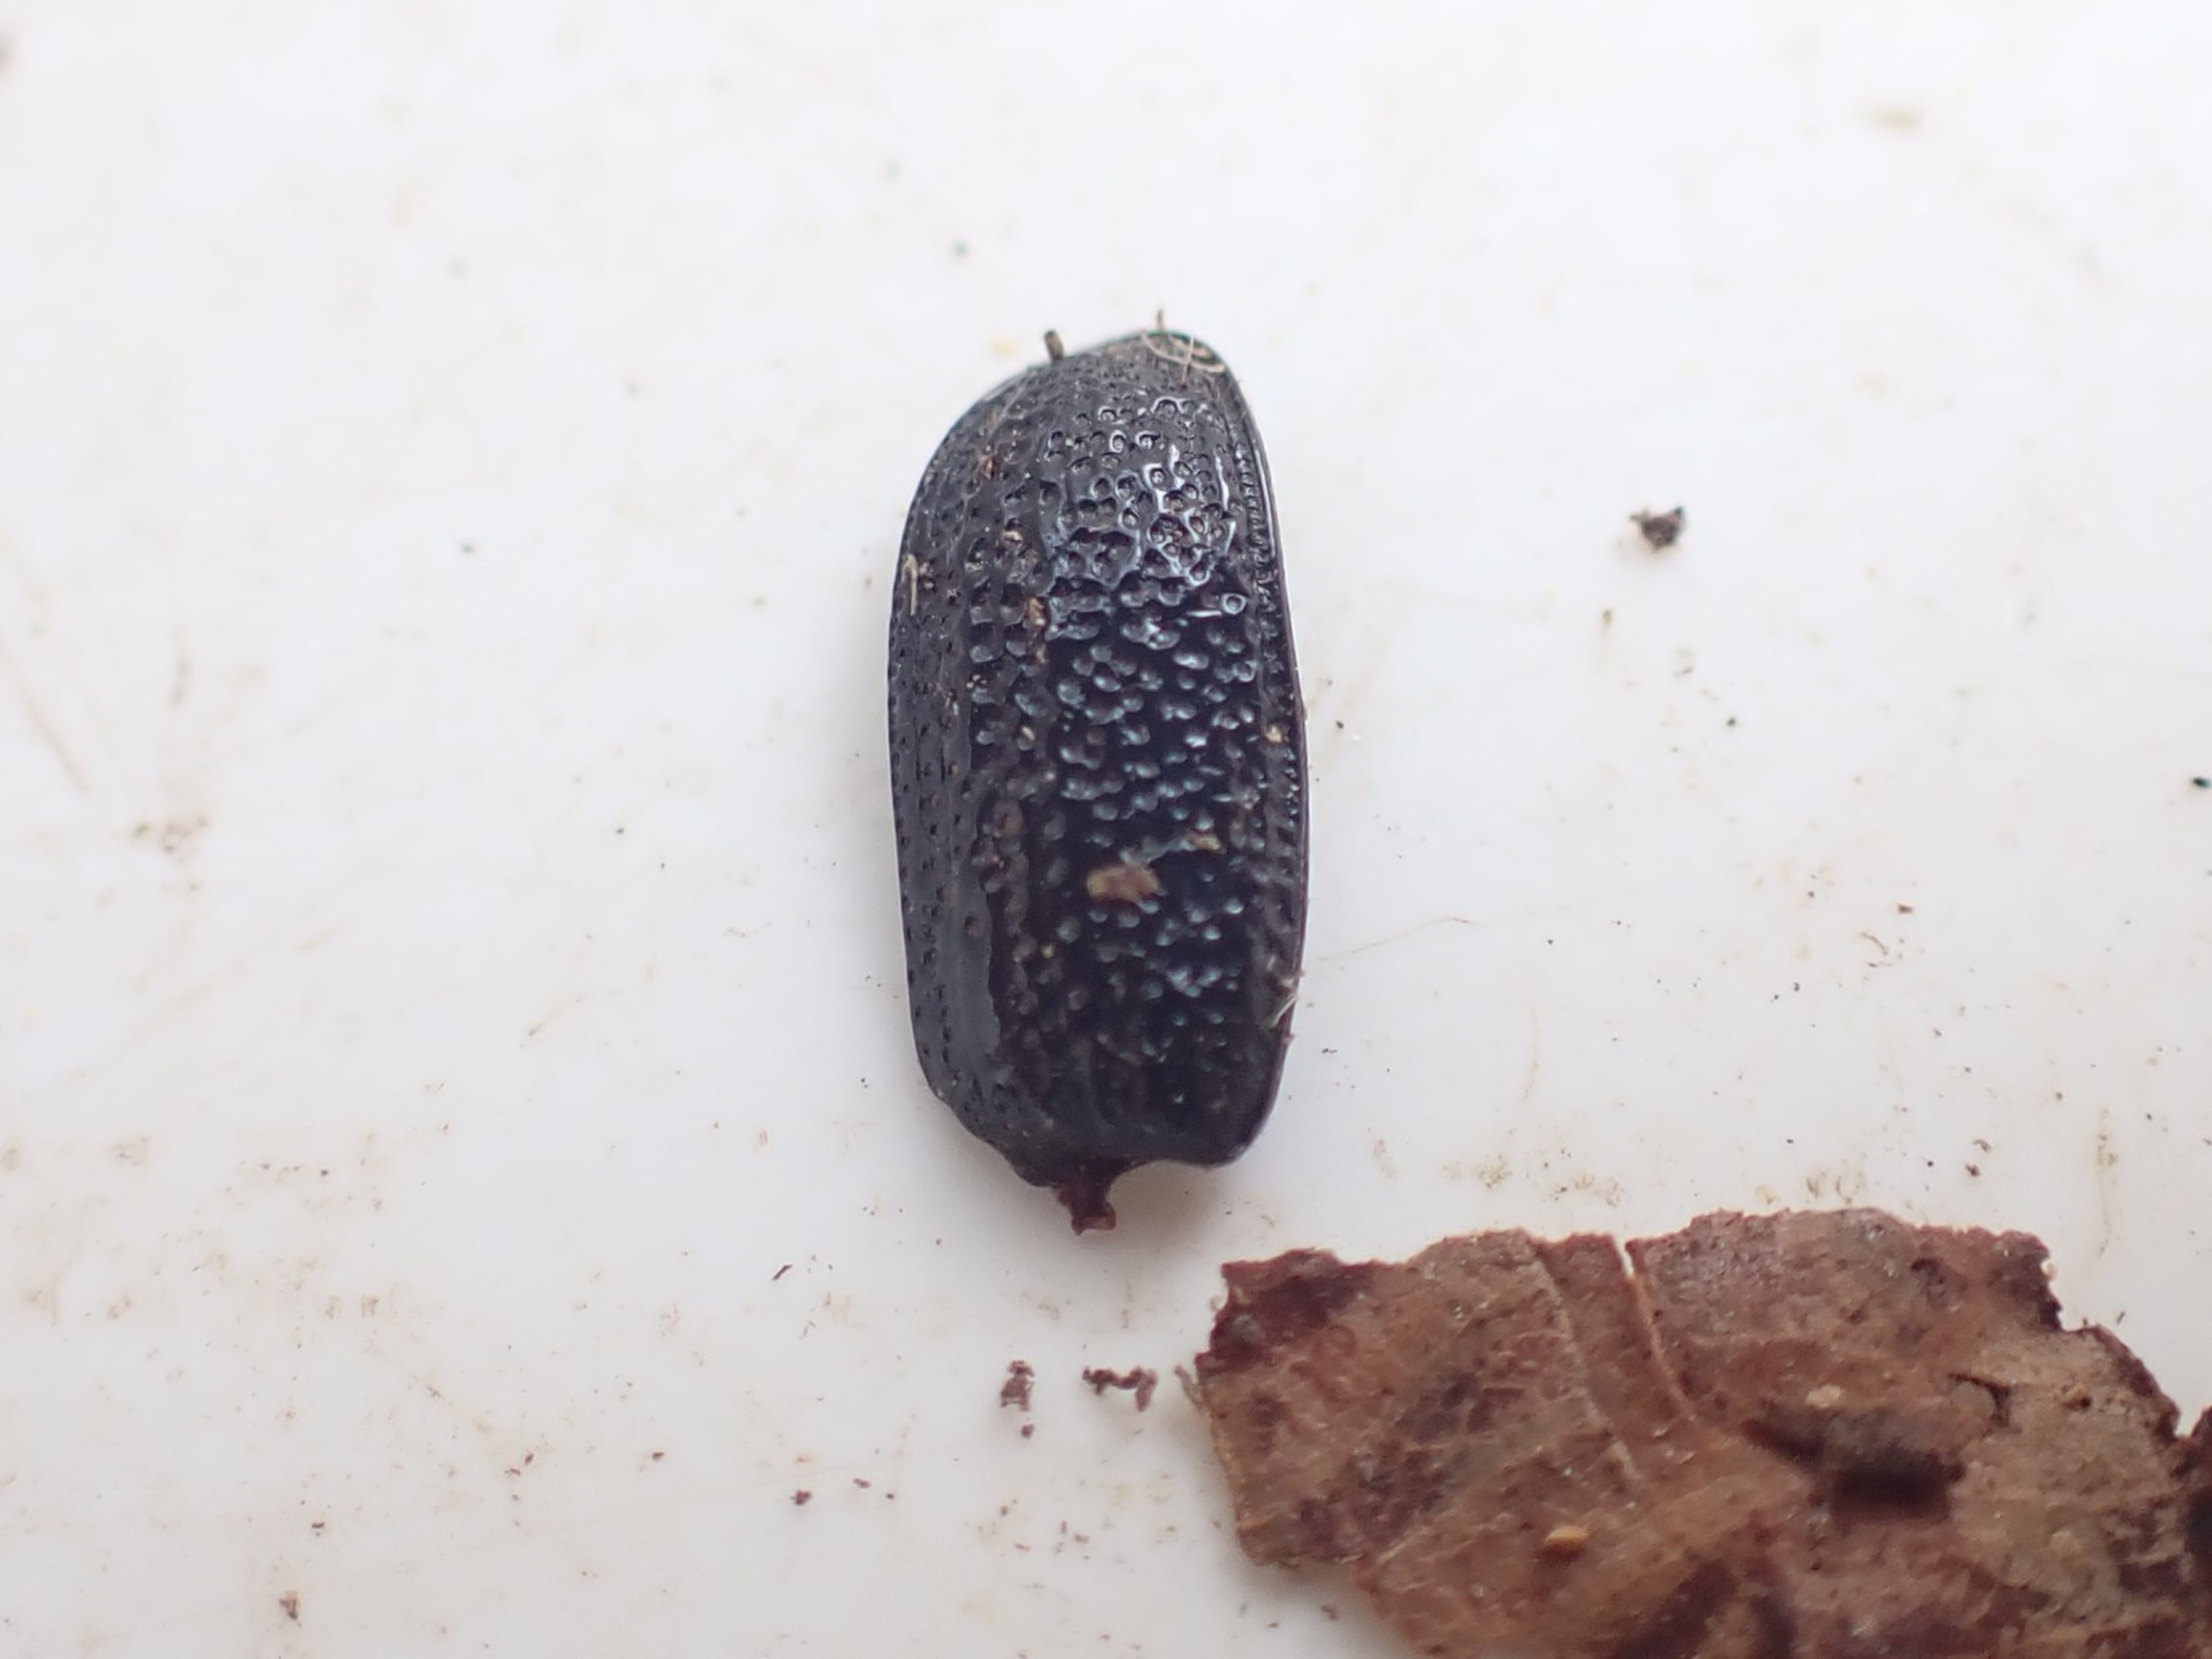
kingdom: Animalia
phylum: Arthropoda
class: Insecta
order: Coleoptera
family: Lucanidae
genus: Sinodendron
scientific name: Sinodendron cylindricum
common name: Valsehjort
